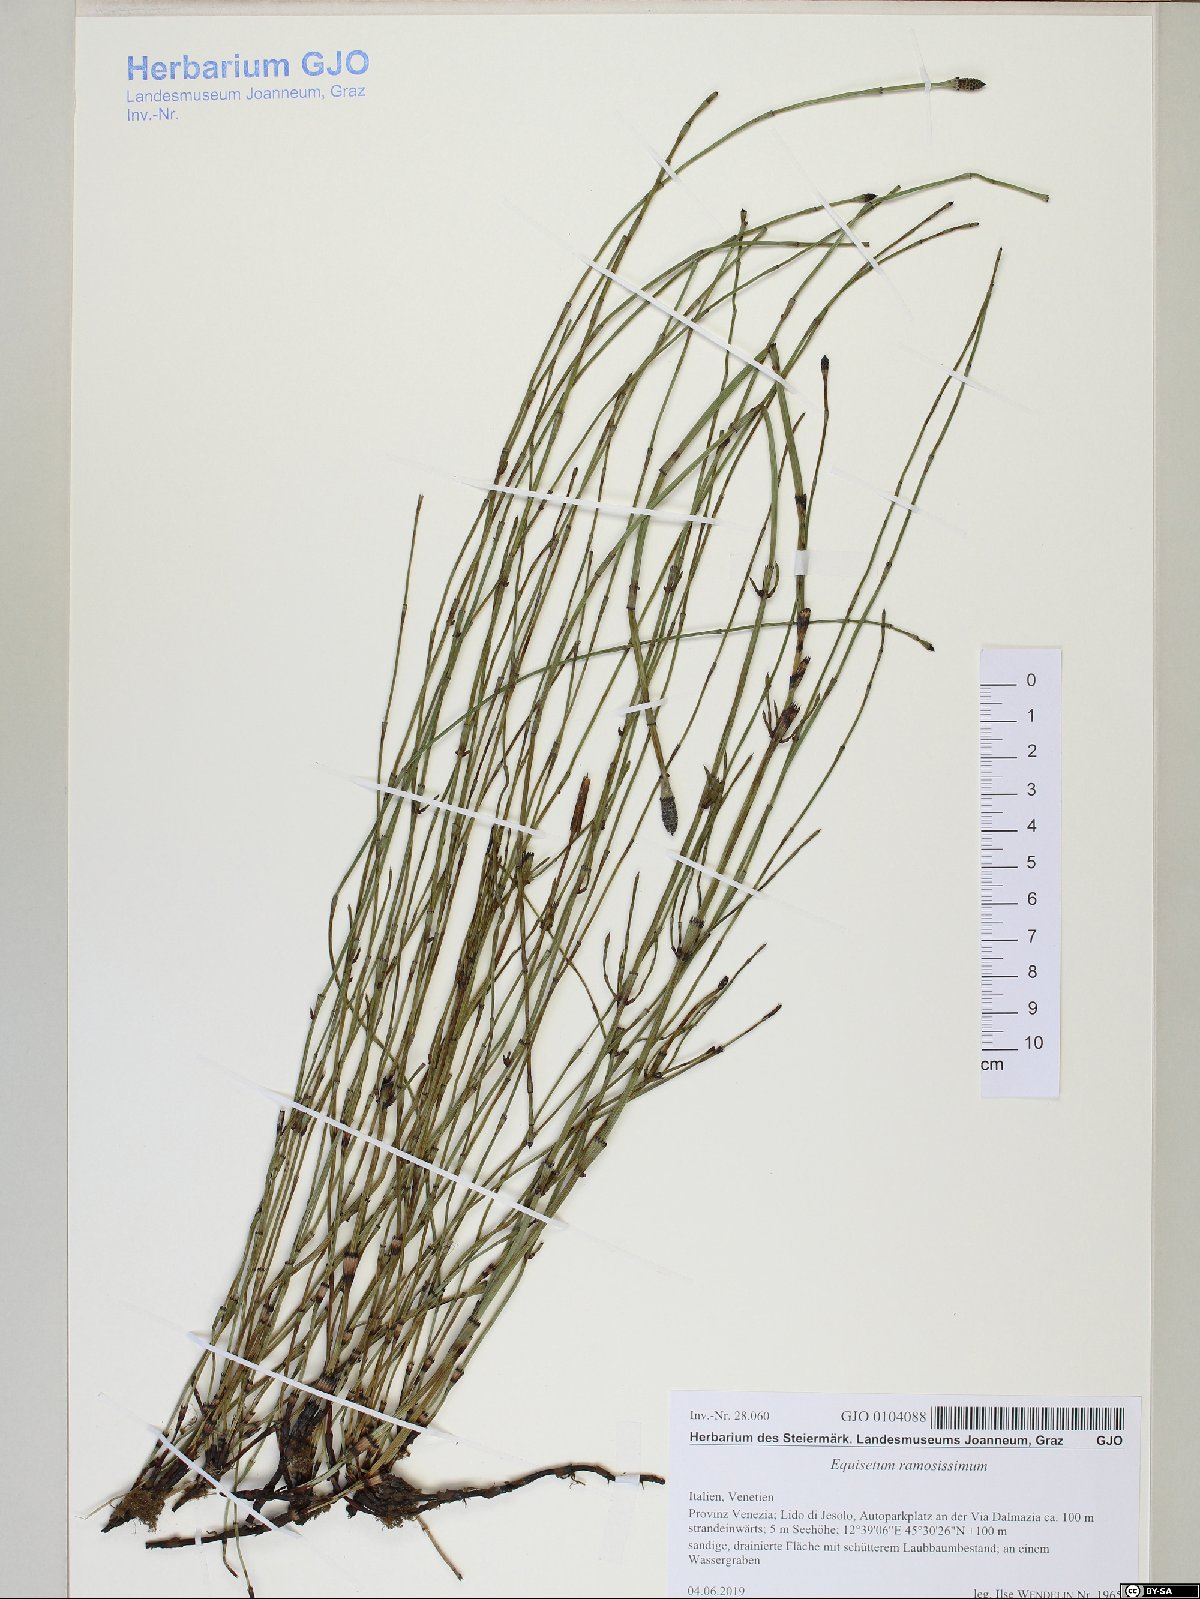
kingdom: Plantae
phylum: Tracheophyta
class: Polypodiopsida
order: Equisetales
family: Equisetaceae
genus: Equisetum
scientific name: Equisetum ramosissimum
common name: Branched horsetail
